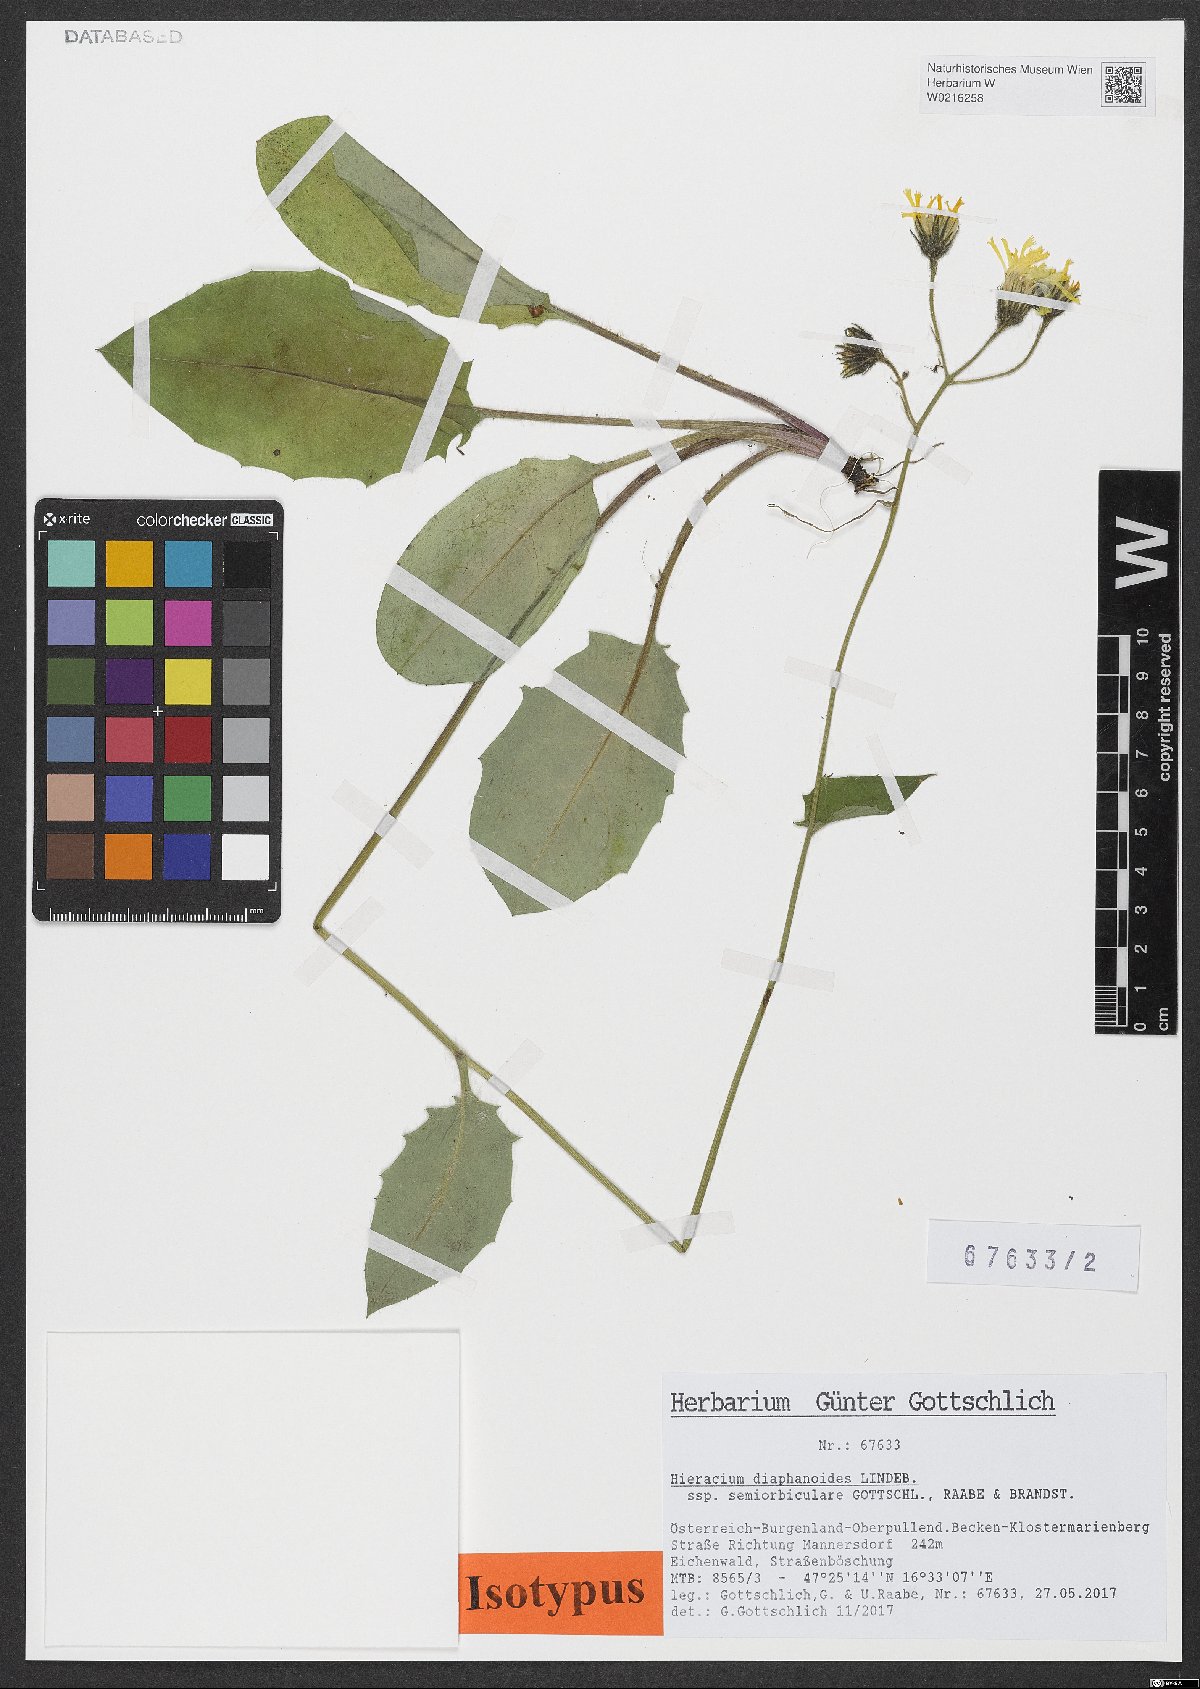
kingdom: Plantae
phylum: Tracheophyta
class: Magnoliopsida
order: Asterales
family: Asteraceae
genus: Hieracium
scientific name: Hieracium diaphanoides
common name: Fine-bracted hawkweed
